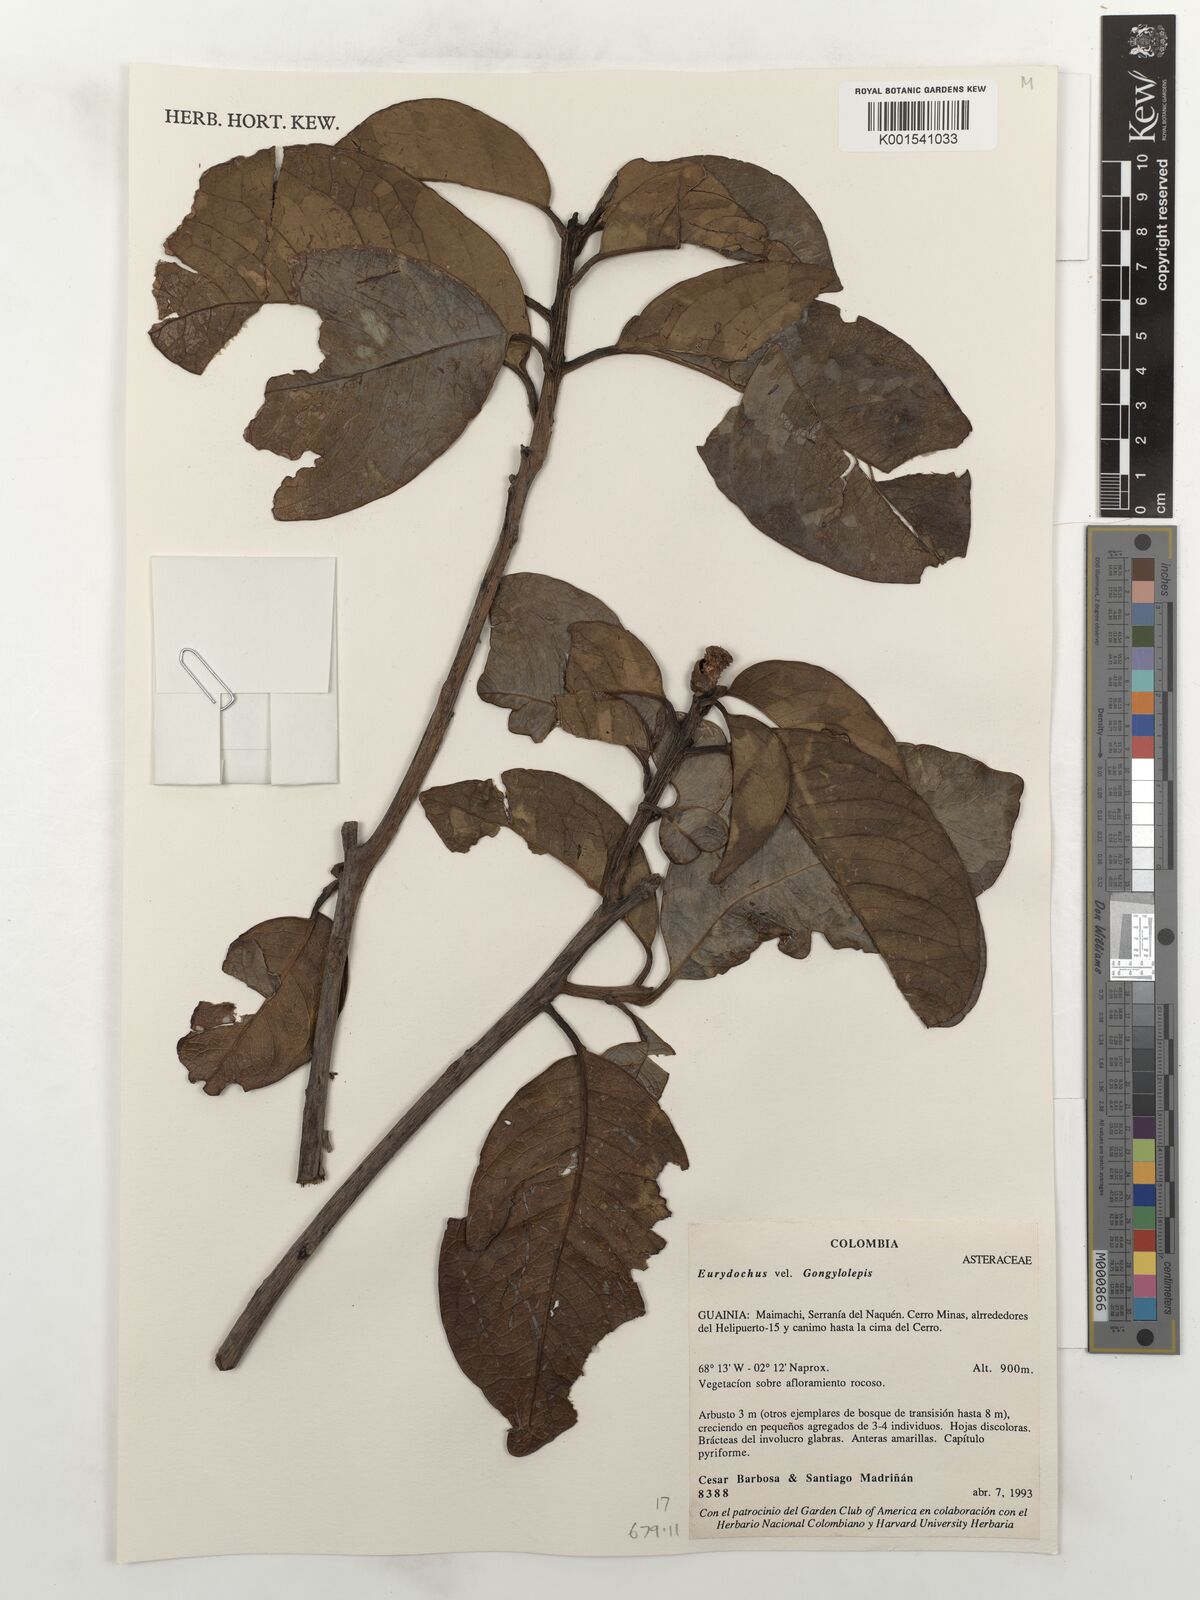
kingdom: Plantae
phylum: Tracheophyta
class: Magnoliopsida
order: Asterales
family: Asteraceae
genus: Eurydochus
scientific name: Eurydochus
